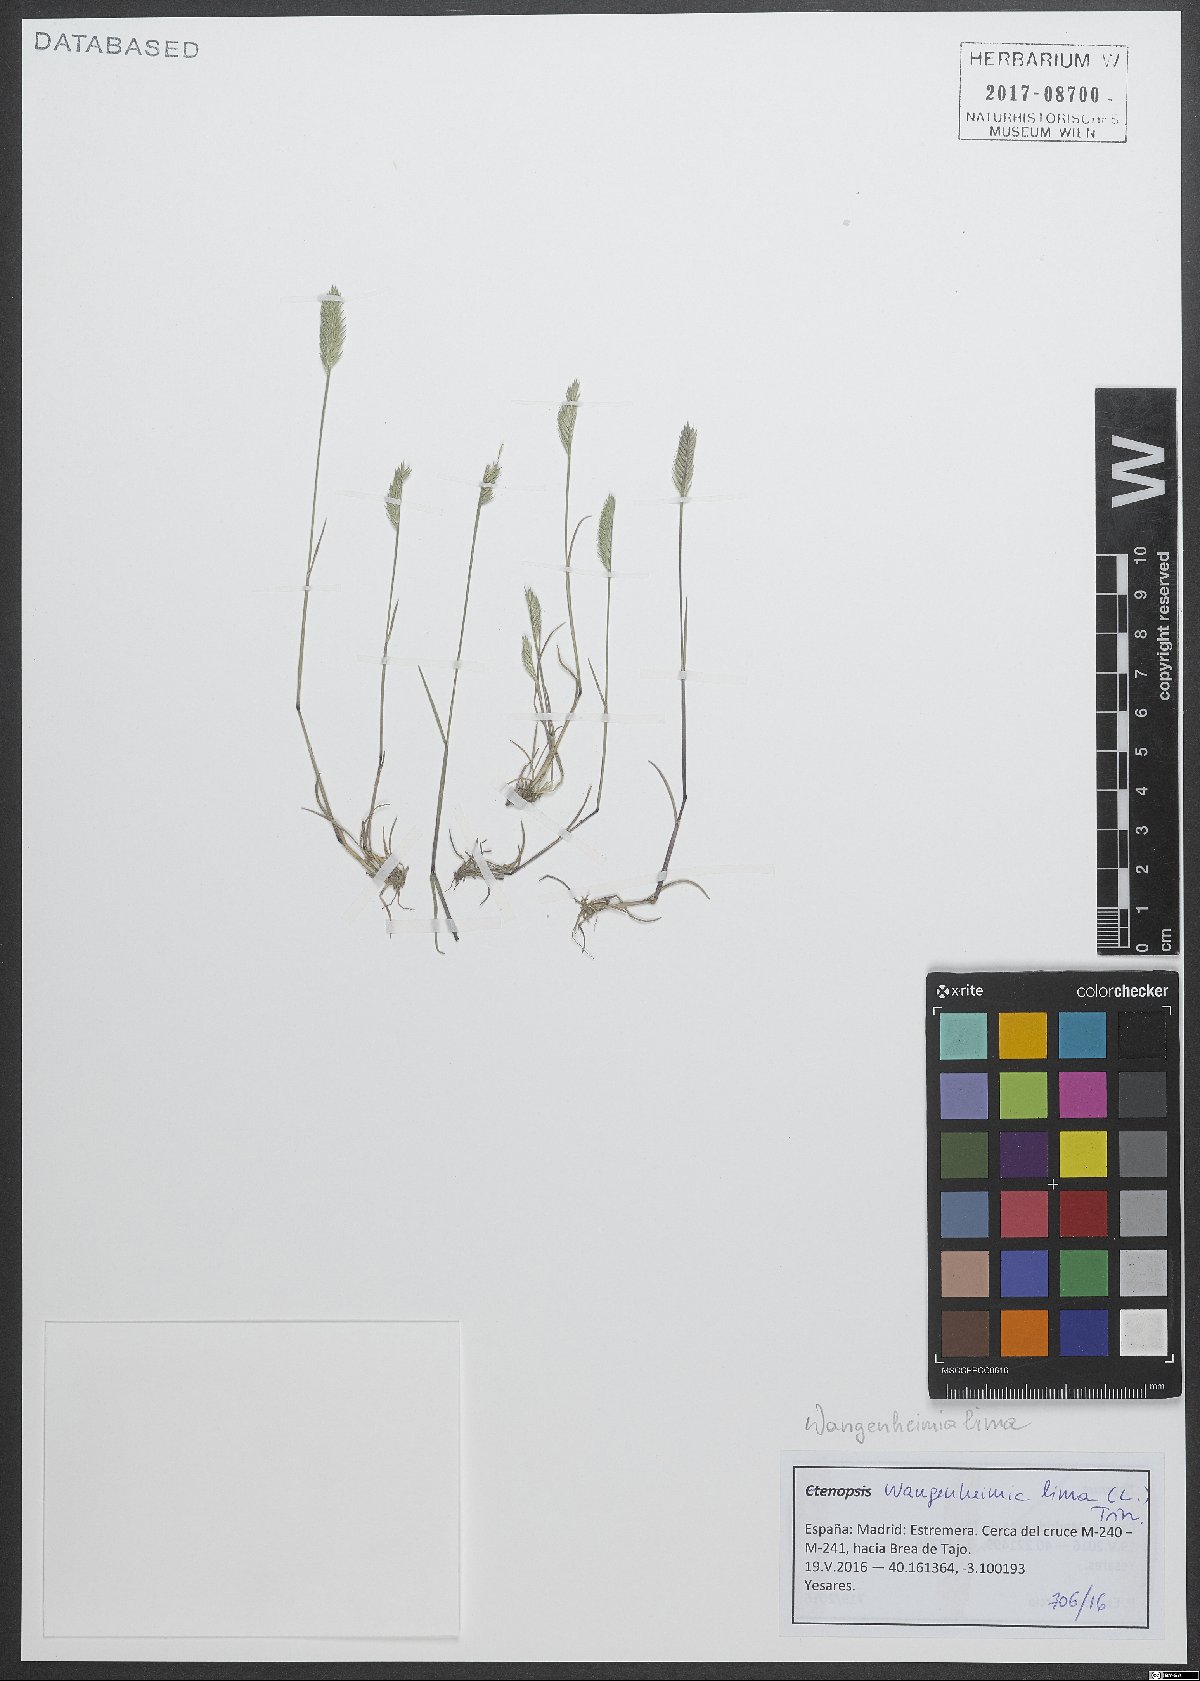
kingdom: Plantae
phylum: Tracheophyta
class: Liliopsida
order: Poales
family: Poaceae
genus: Wangenheimia
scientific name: Wangenheimia lima
